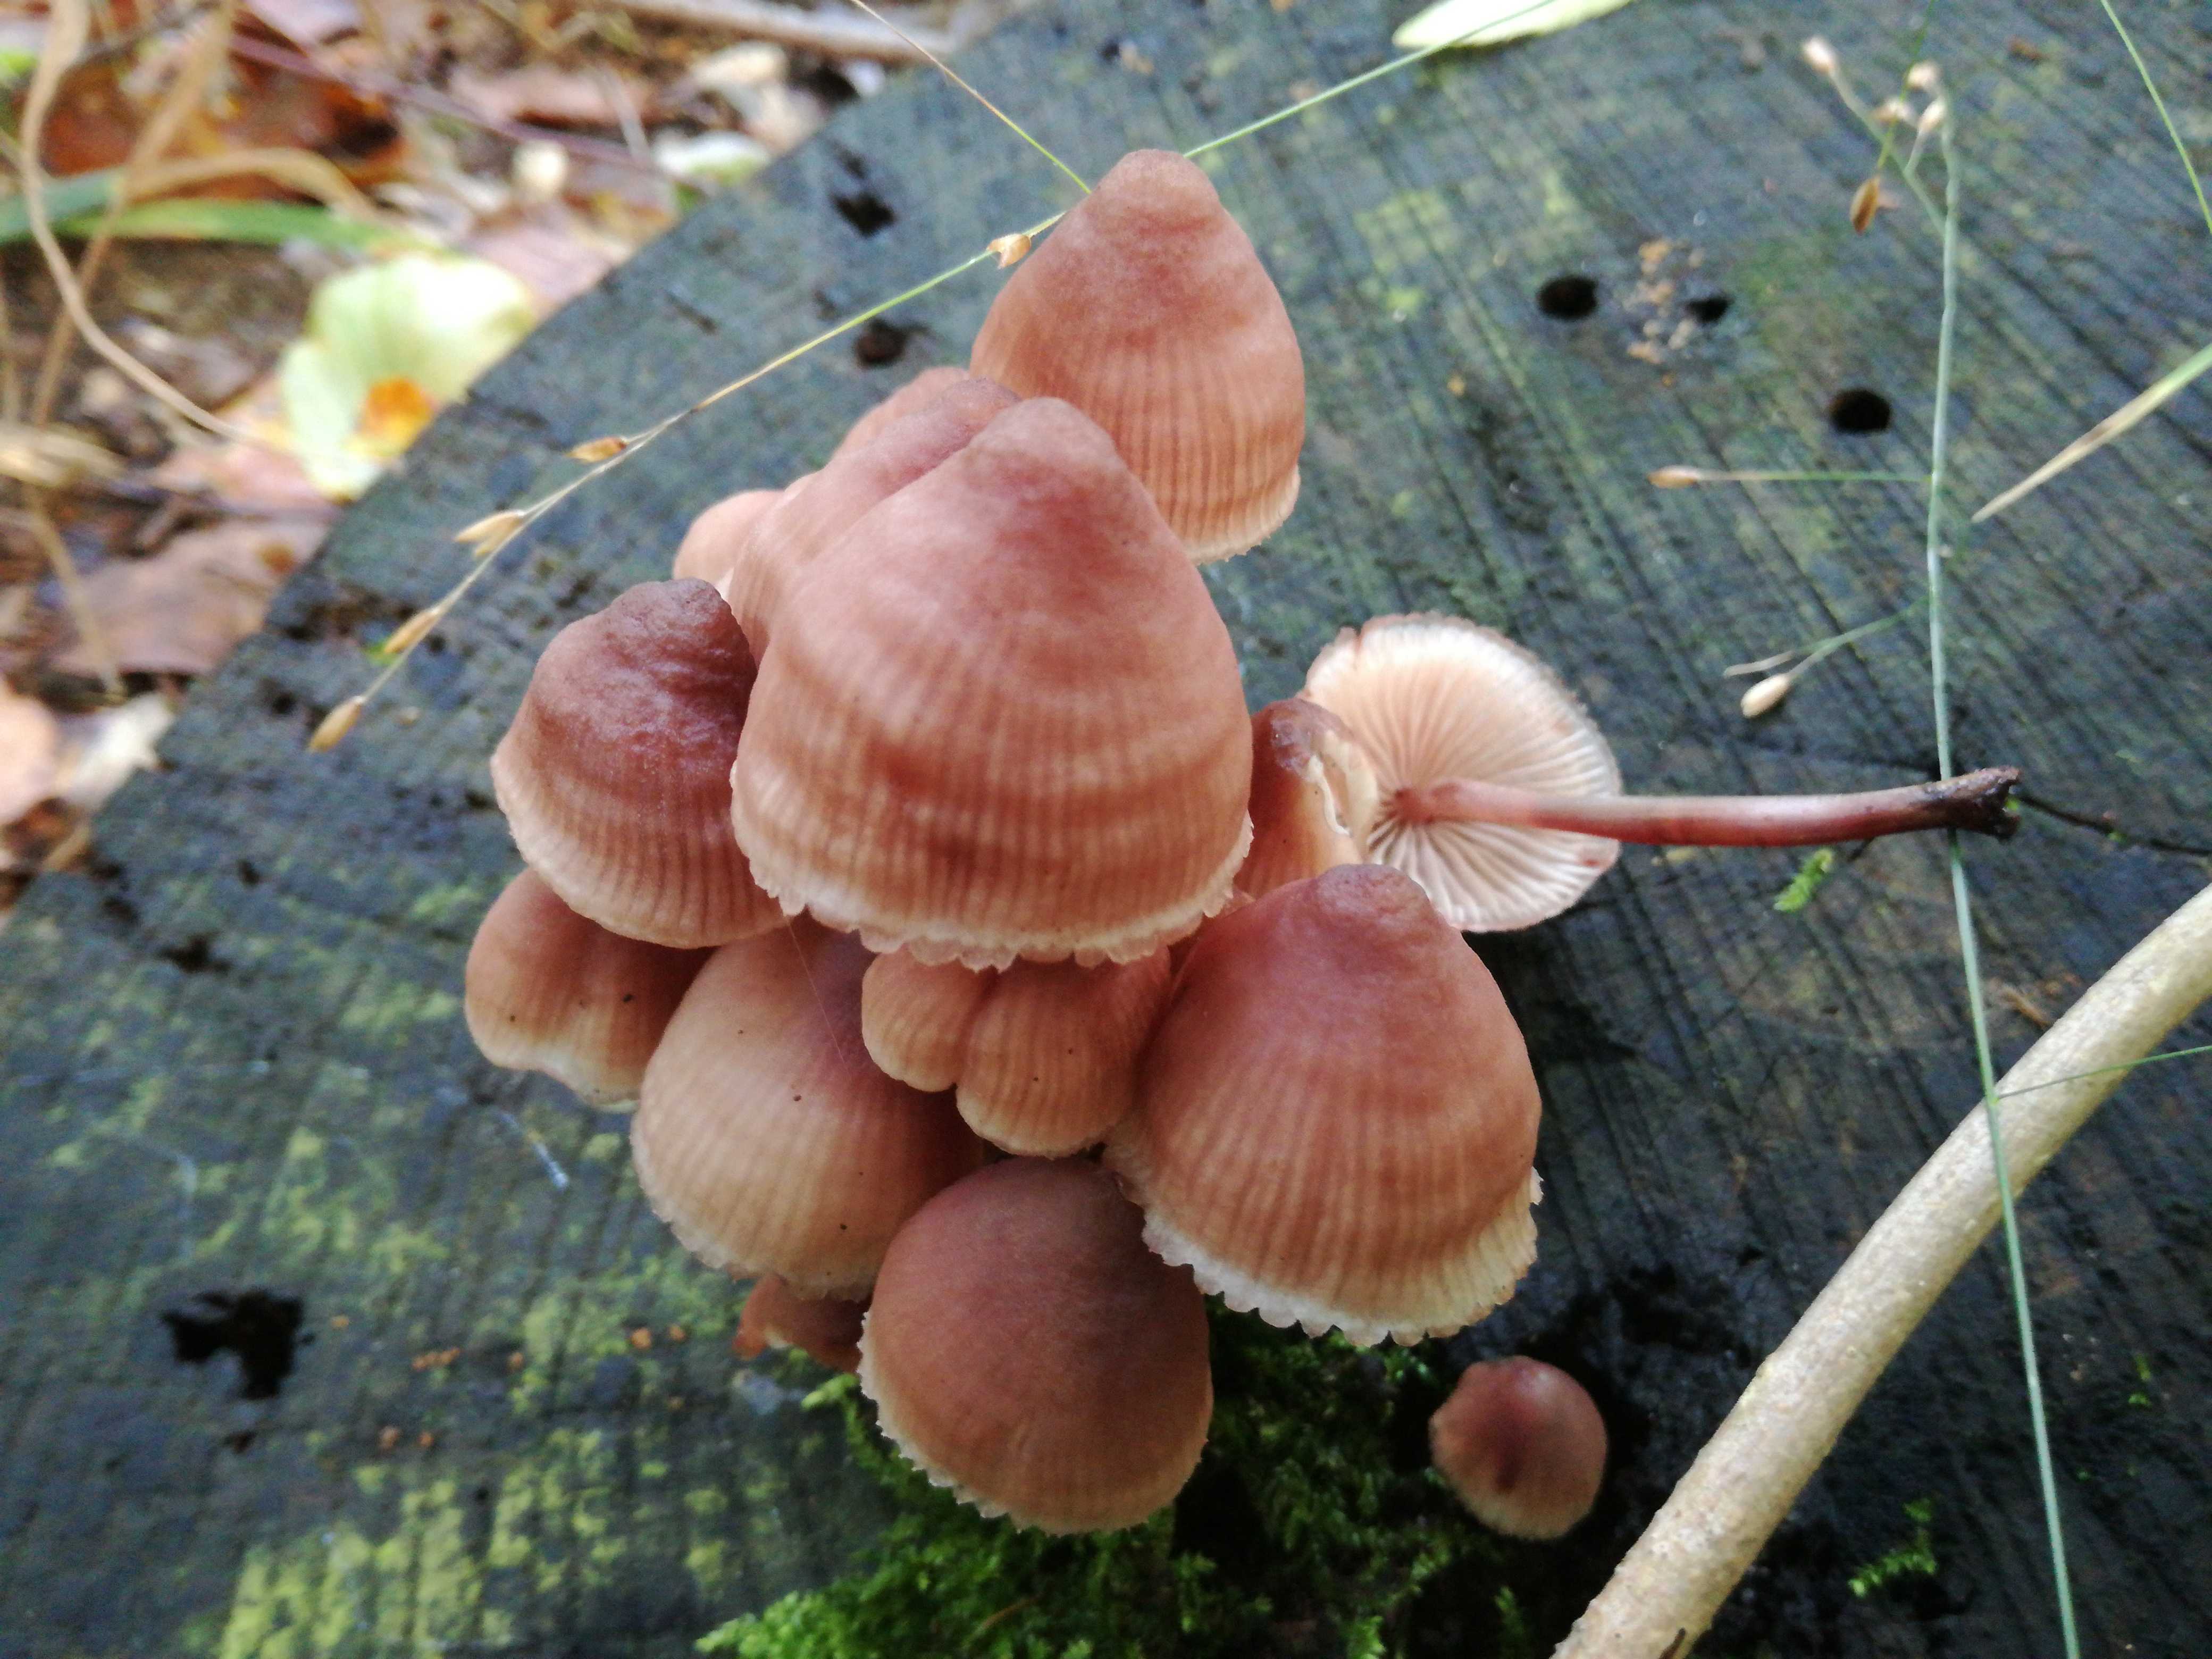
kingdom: Fungi
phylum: Basidiomycota
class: Agaricomycetes
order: Agaricales
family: Mycenaceae
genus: Mycena
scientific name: Mycena haematopus
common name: blødende huesvamp
